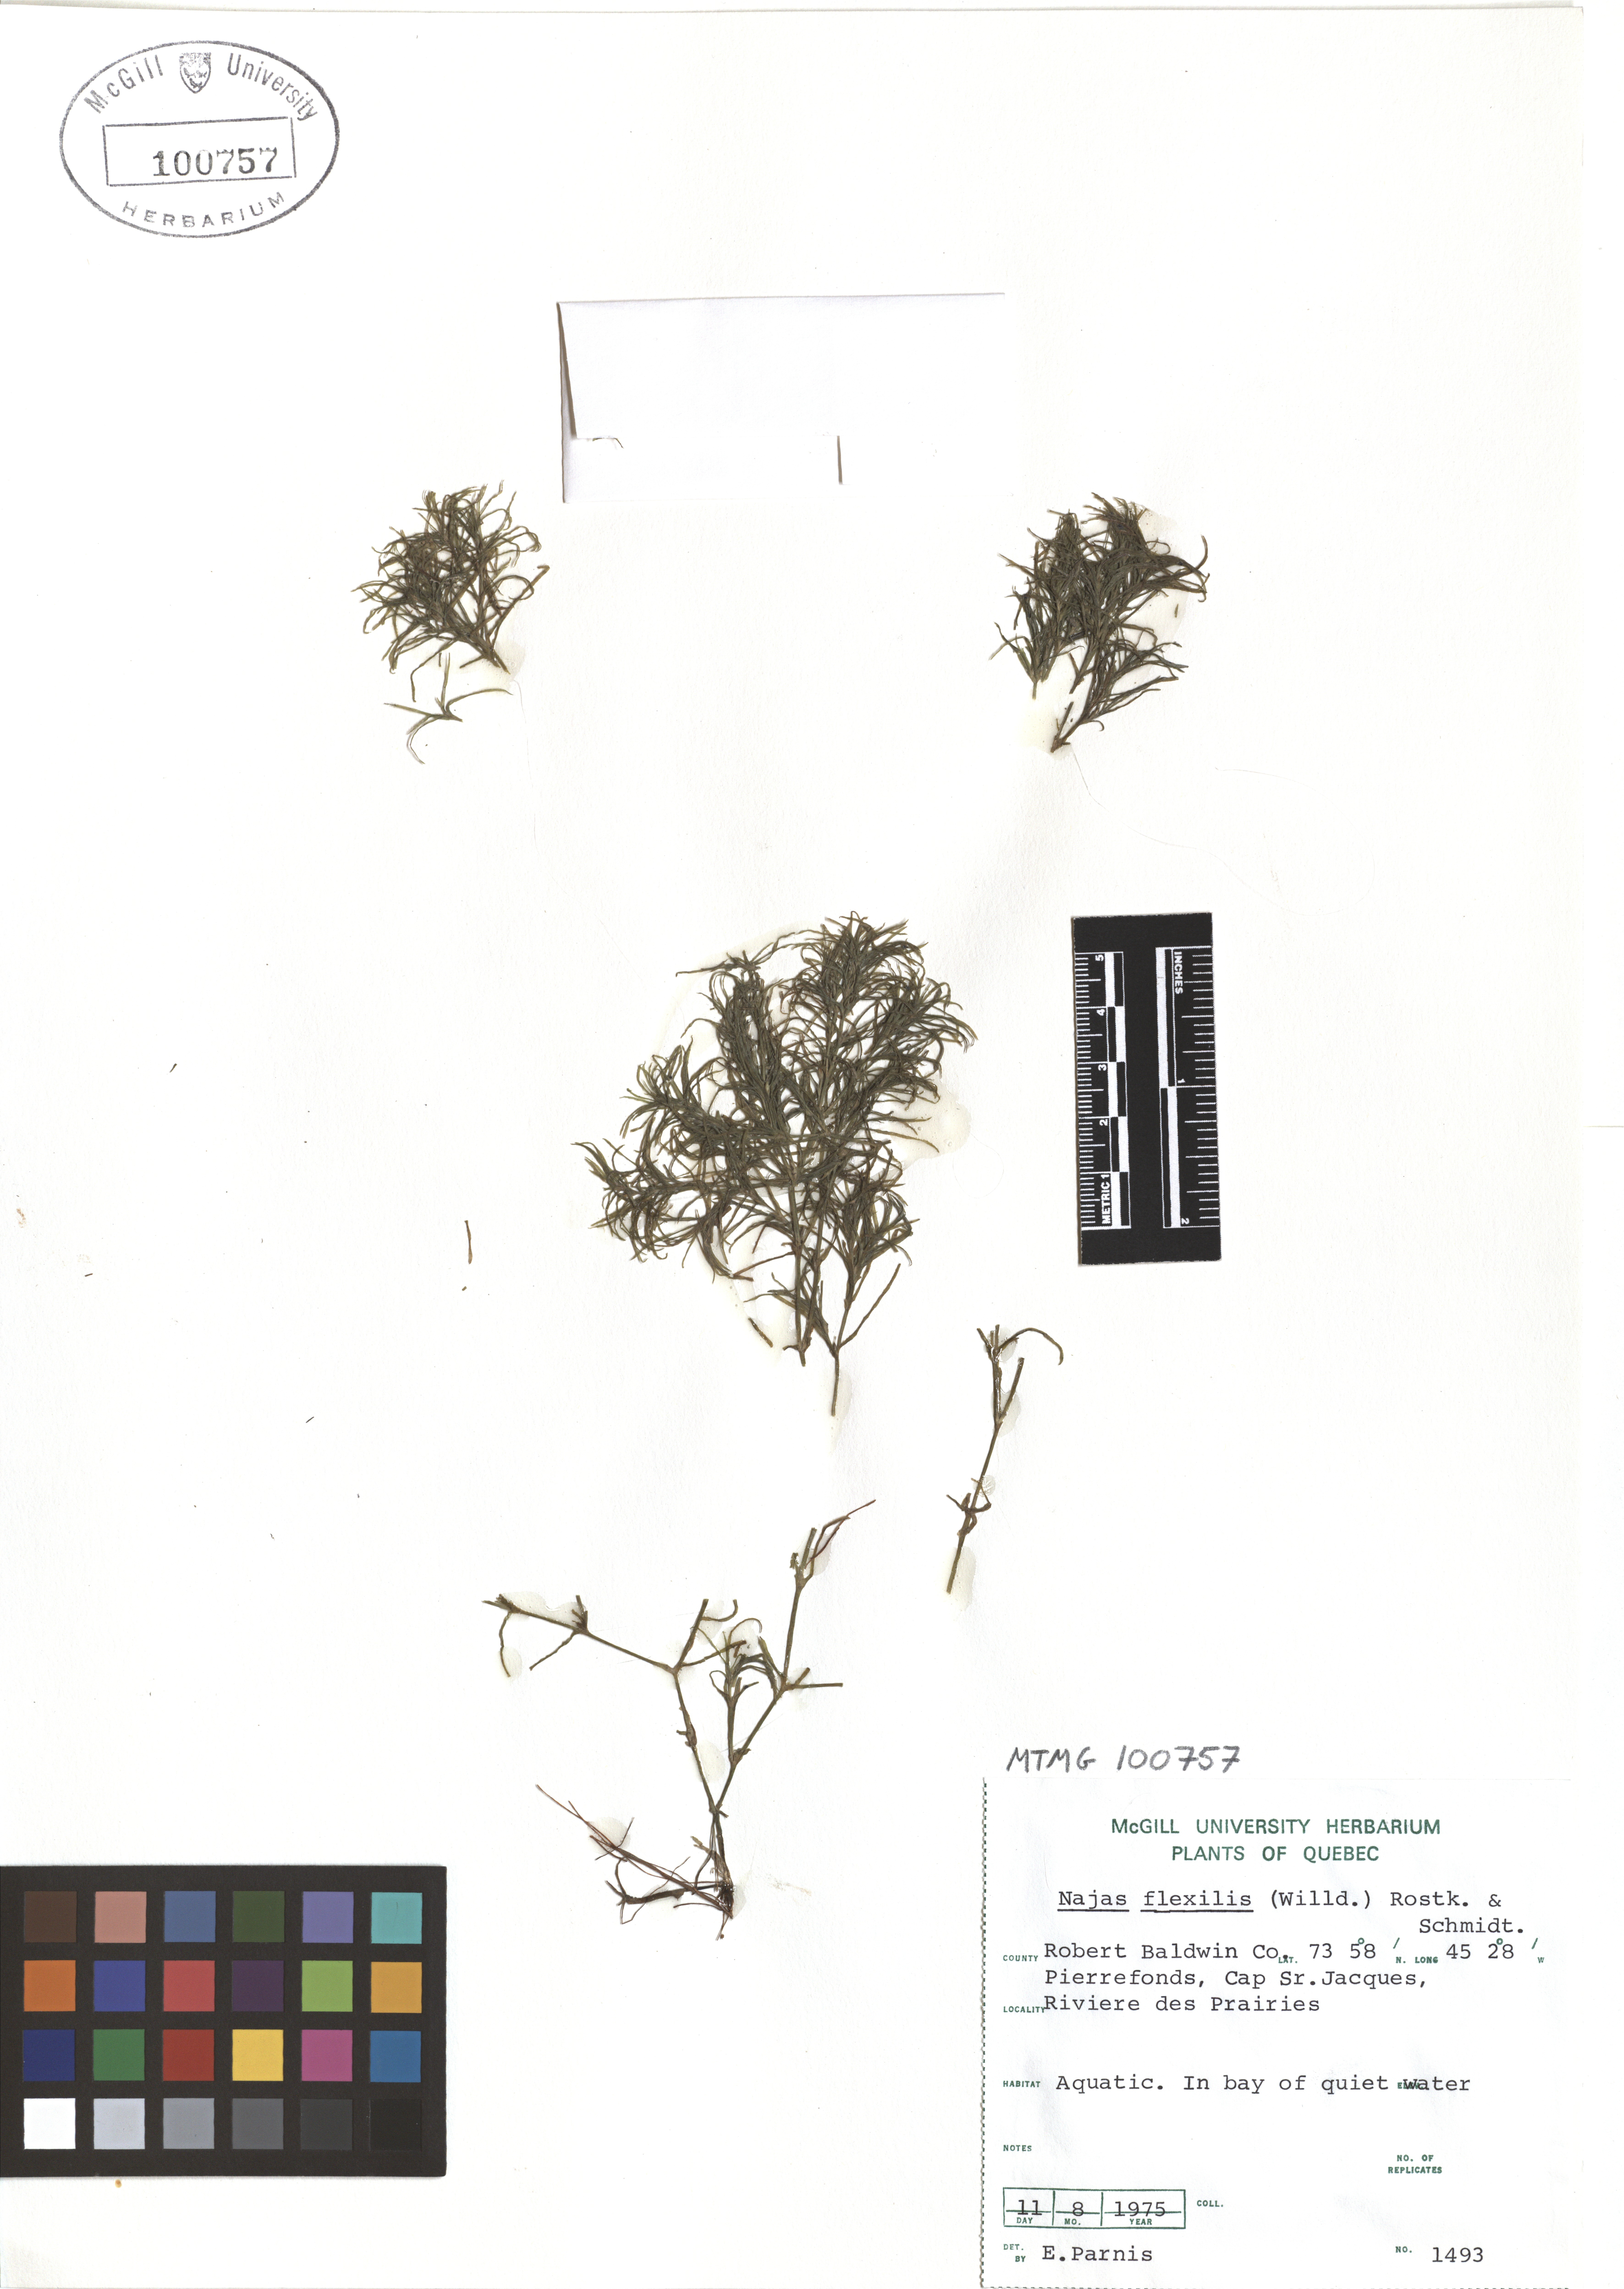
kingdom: Plantae
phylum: Tracheophyta
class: Liliopsida
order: Alismatales
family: Hydrocharitaceae
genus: Najas
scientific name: Najas guadalupensis
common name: Southern naiad
